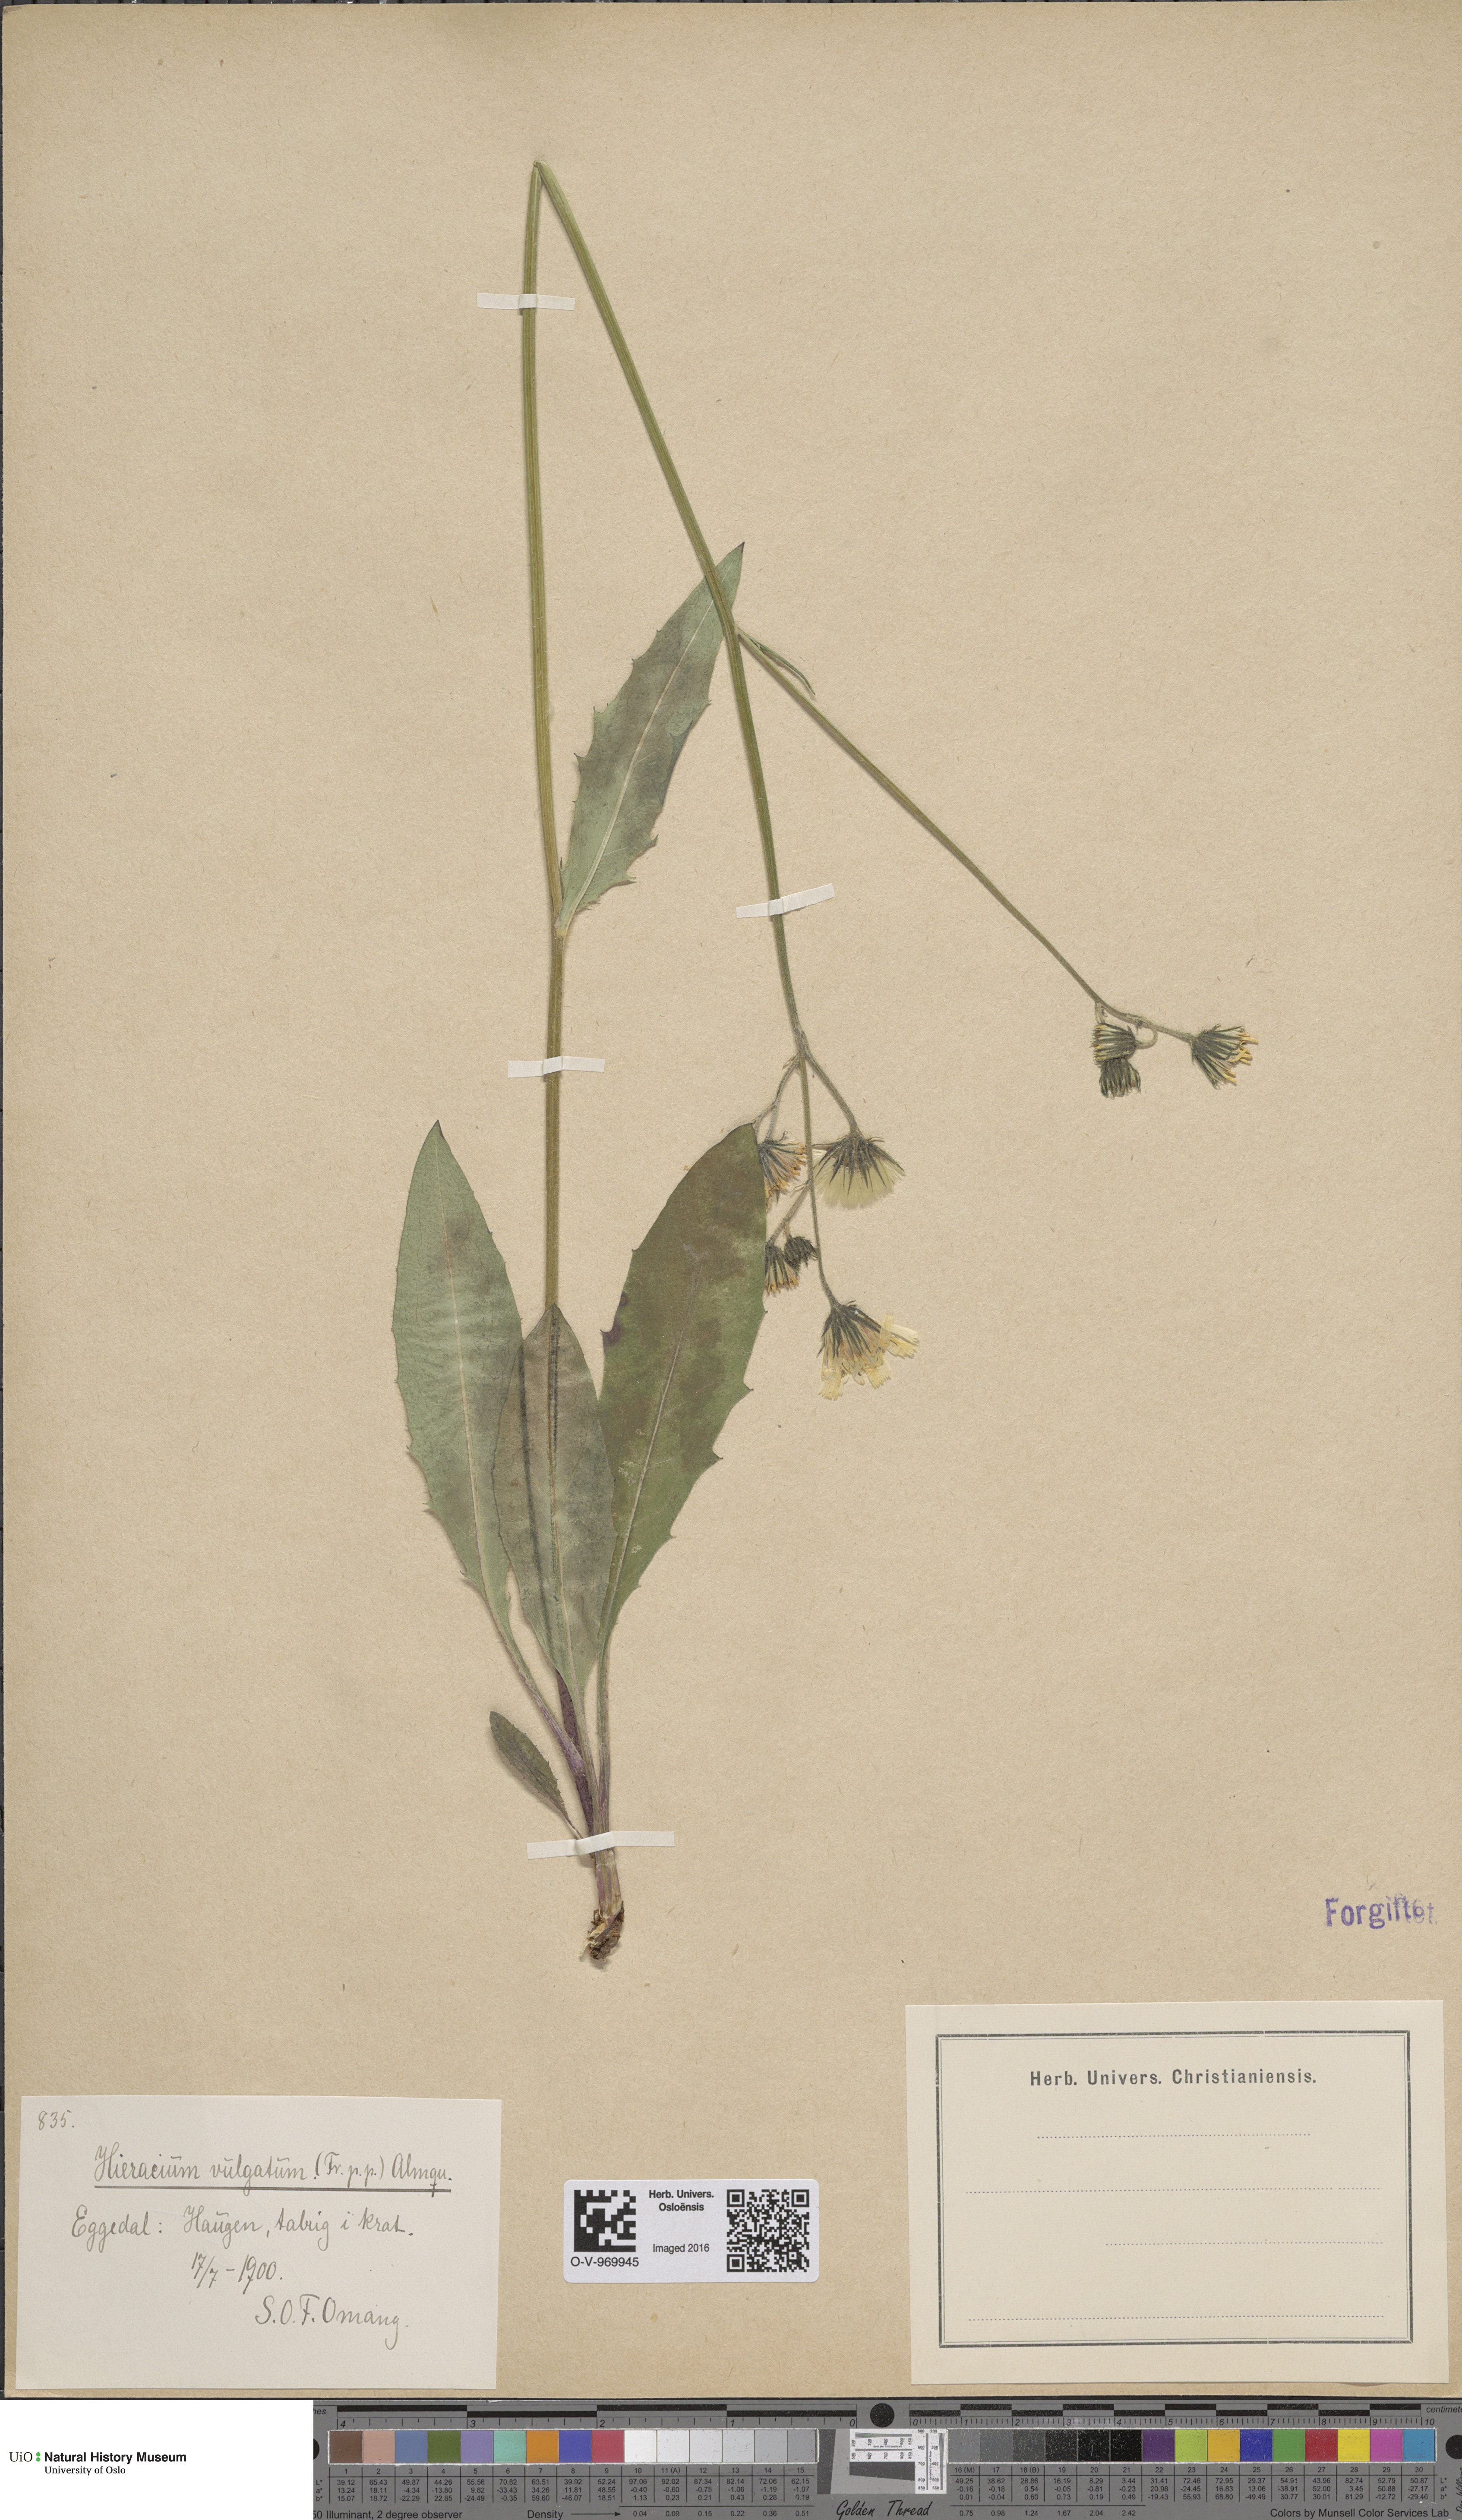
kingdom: Plantae
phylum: Tracheophyta
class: Magnoliopsida
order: Asterales
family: Asteraceae
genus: Hieracium
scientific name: Hieracium vulgatum
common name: Common hawkweed
